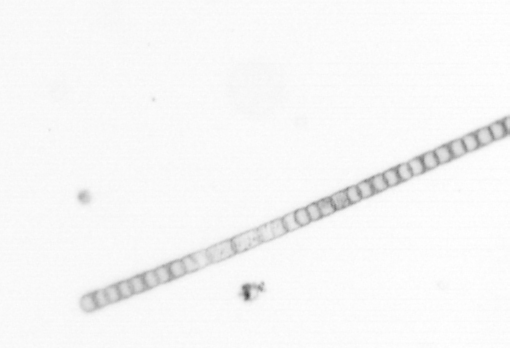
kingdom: Chromista
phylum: Ochrophyta
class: Bacillariophyceae
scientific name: Bacillariophyceae
